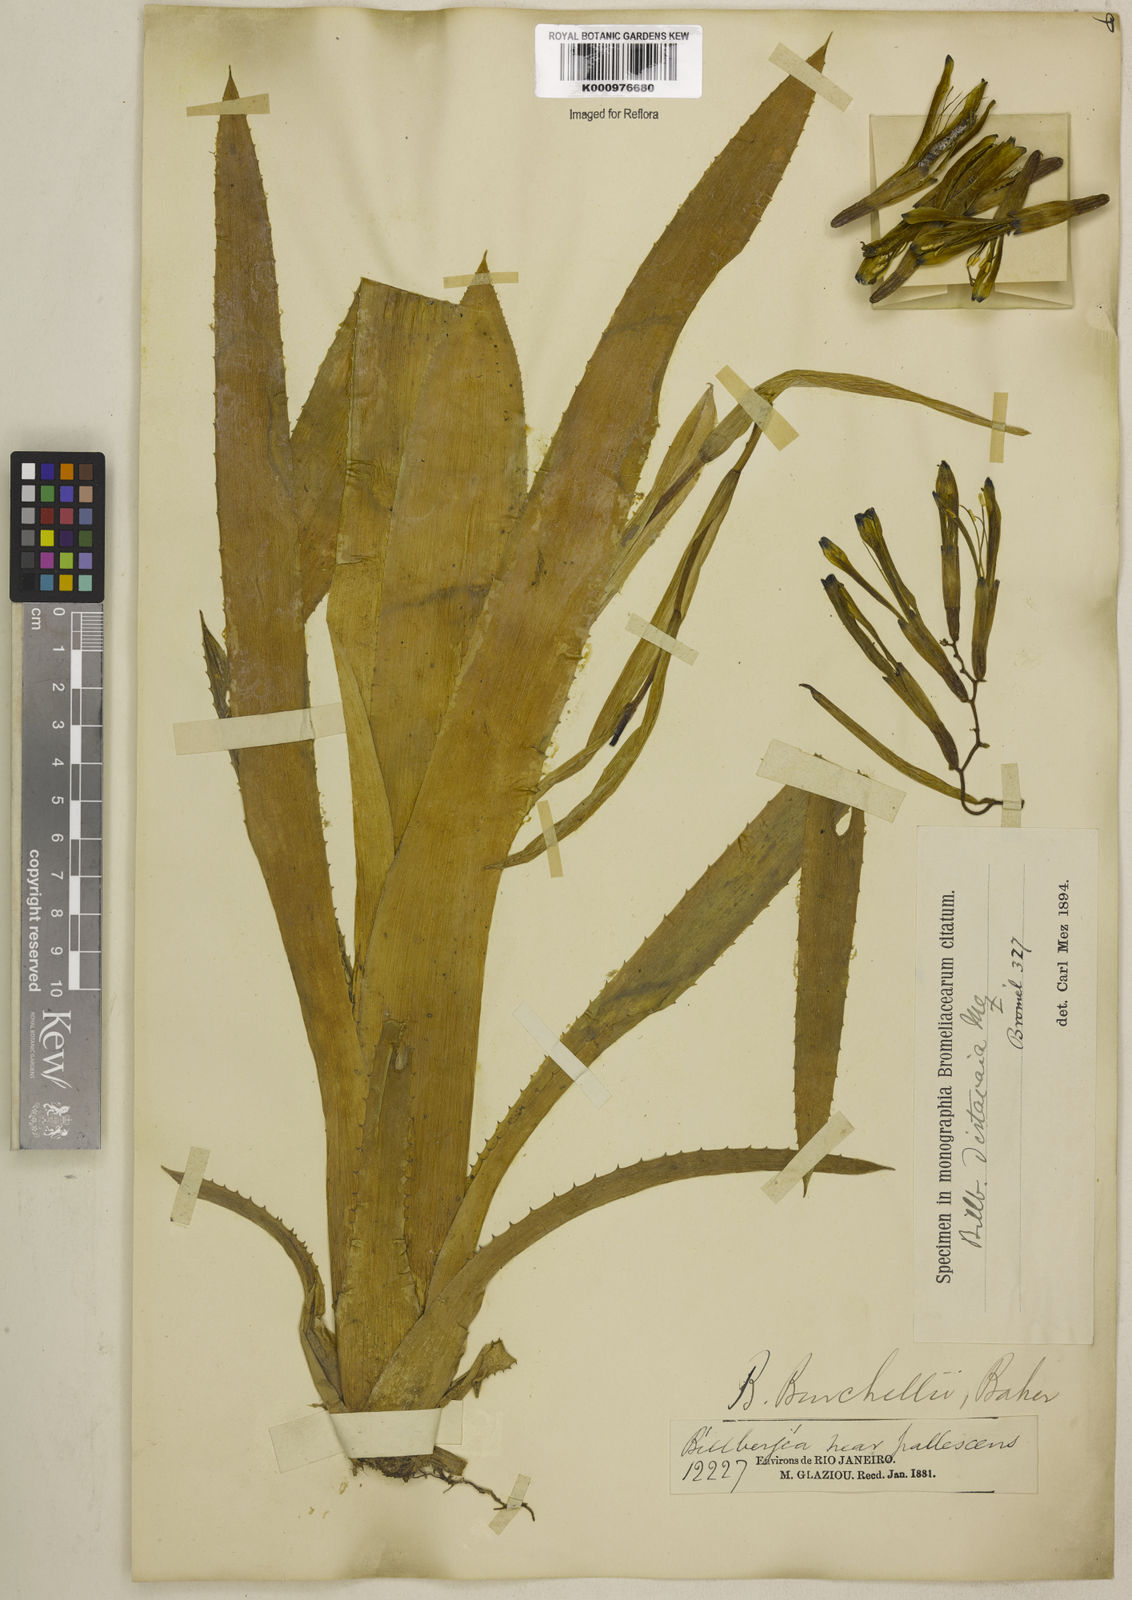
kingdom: Plantae
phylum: Tracheophyta
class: Liliopsida
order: Poales
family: Bromeliaceae
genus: Billbergia
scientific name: Billbergia distachia
